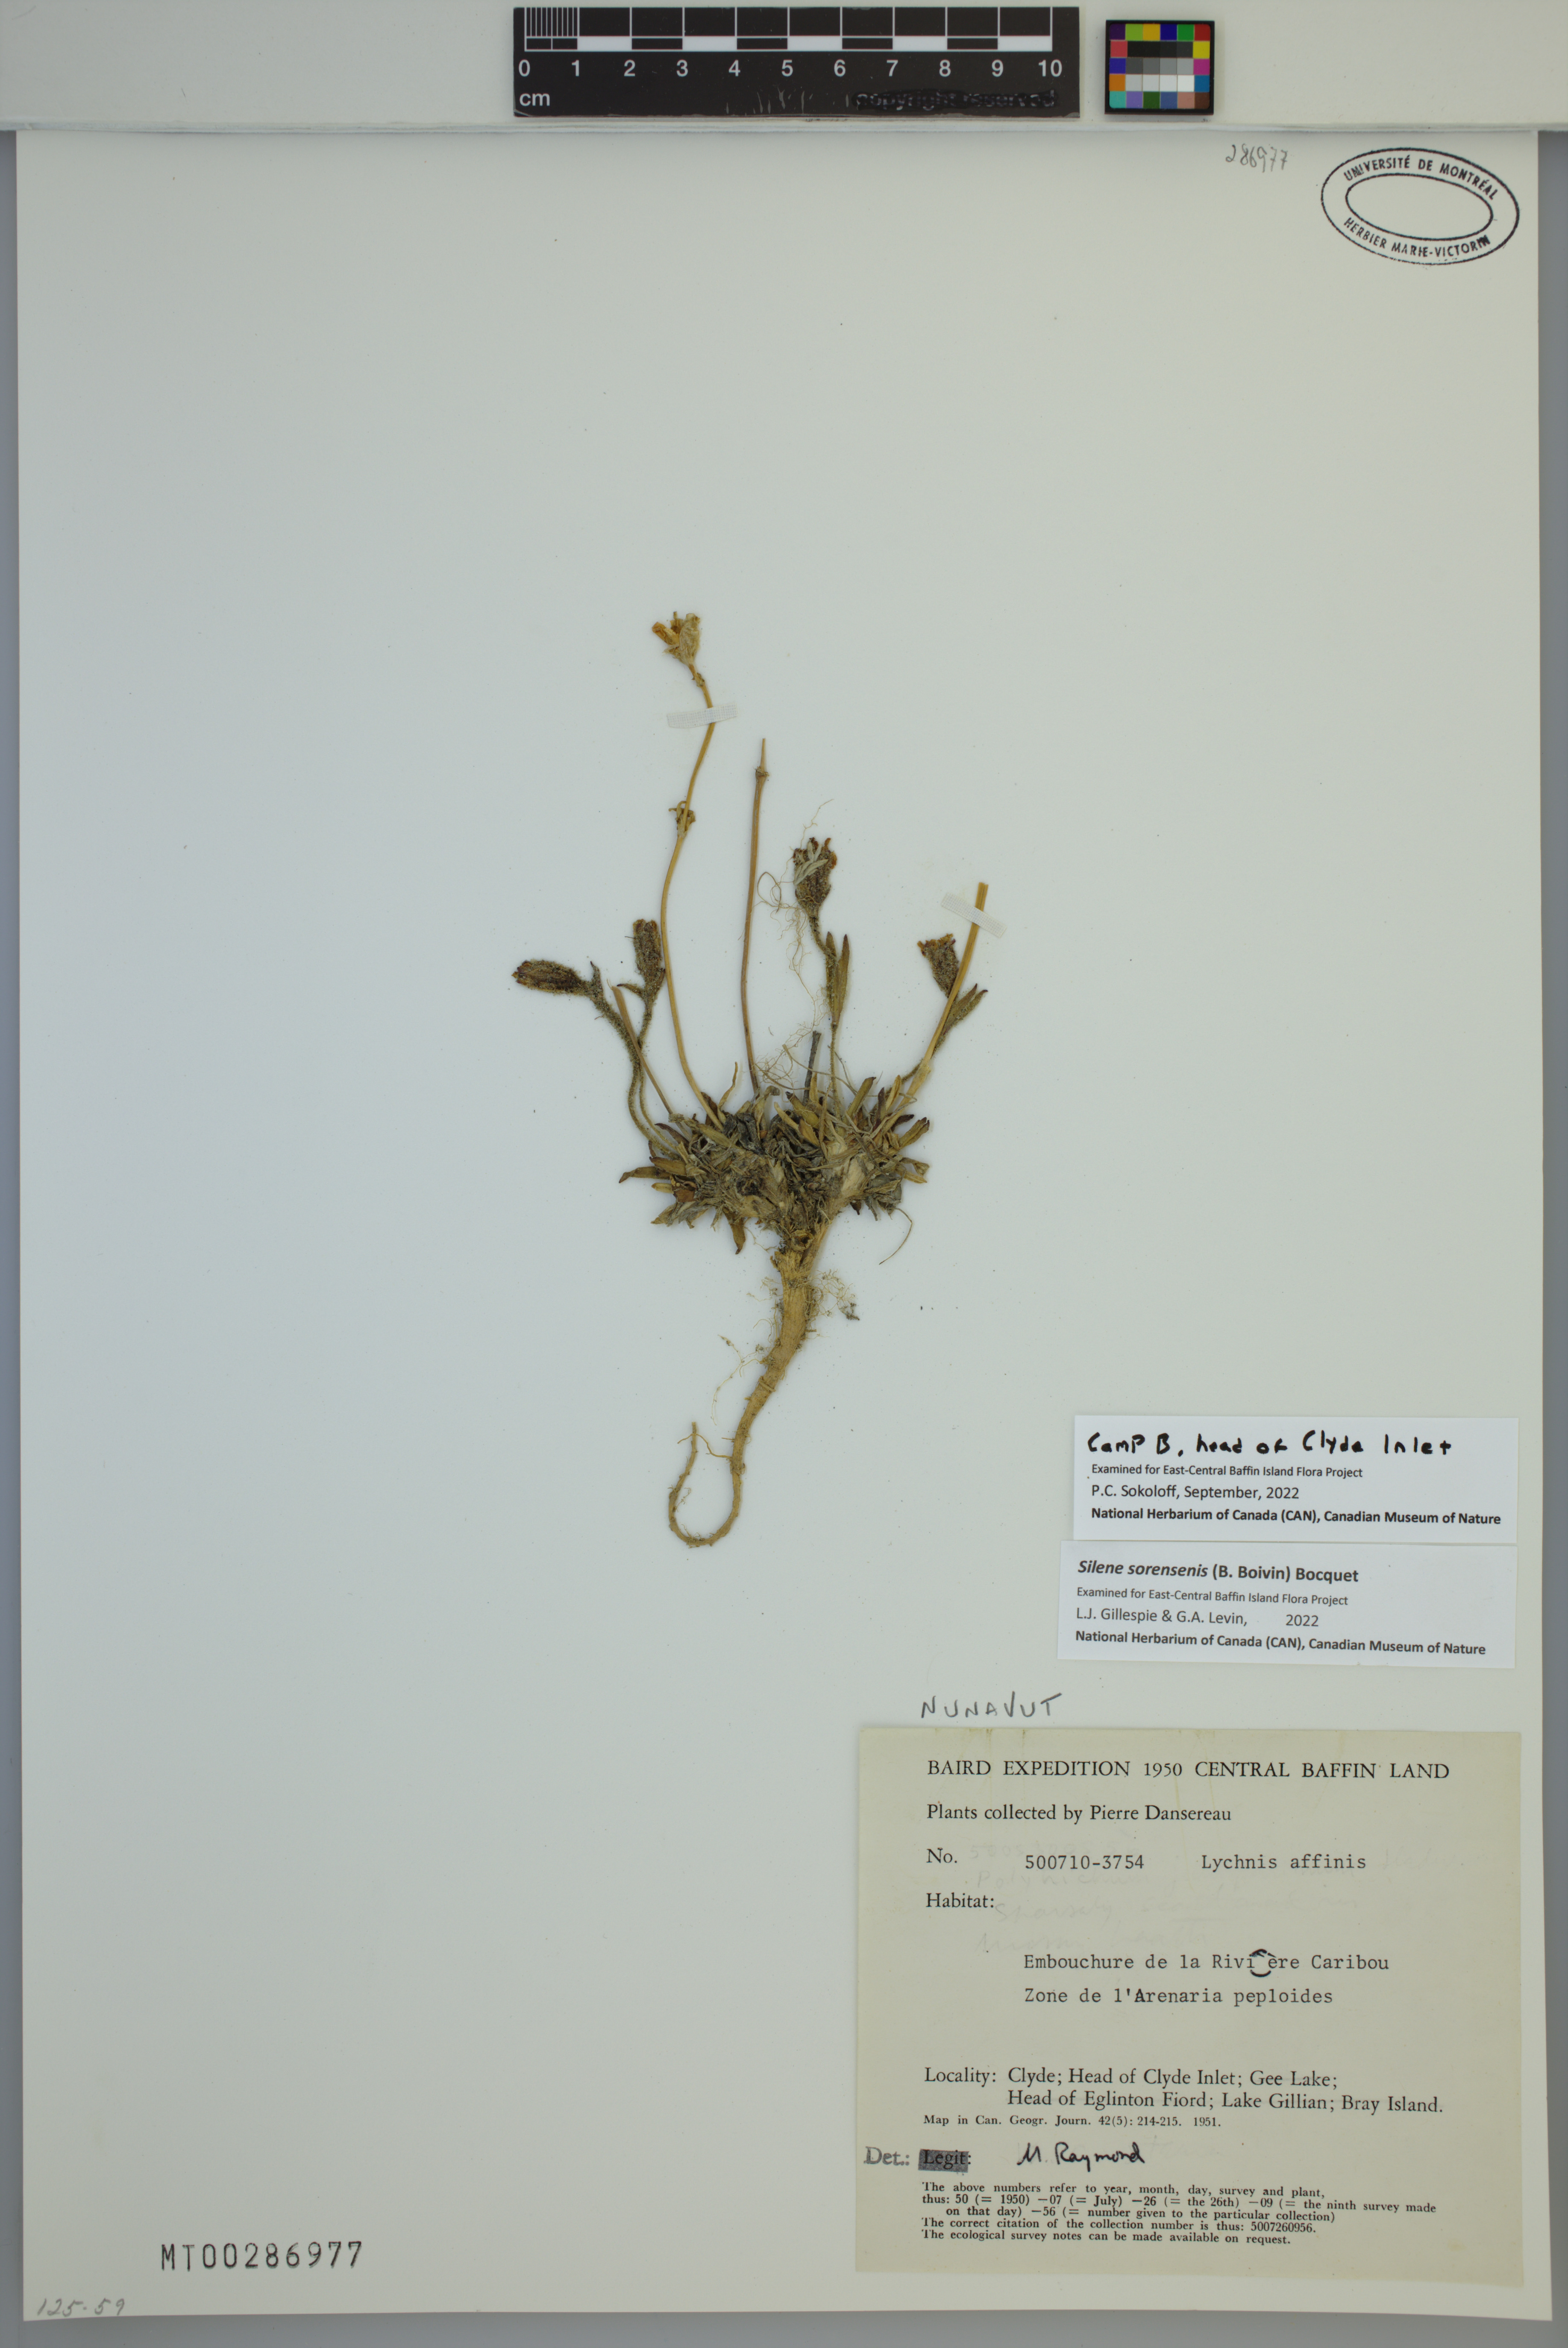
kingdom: Plantae
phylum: Tracheophyta
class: Magnoliopsida
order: Caryophyllales
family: Caryophyllaceae
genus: Silene
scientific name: Silene sorensenis
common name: Sorensen's campion
